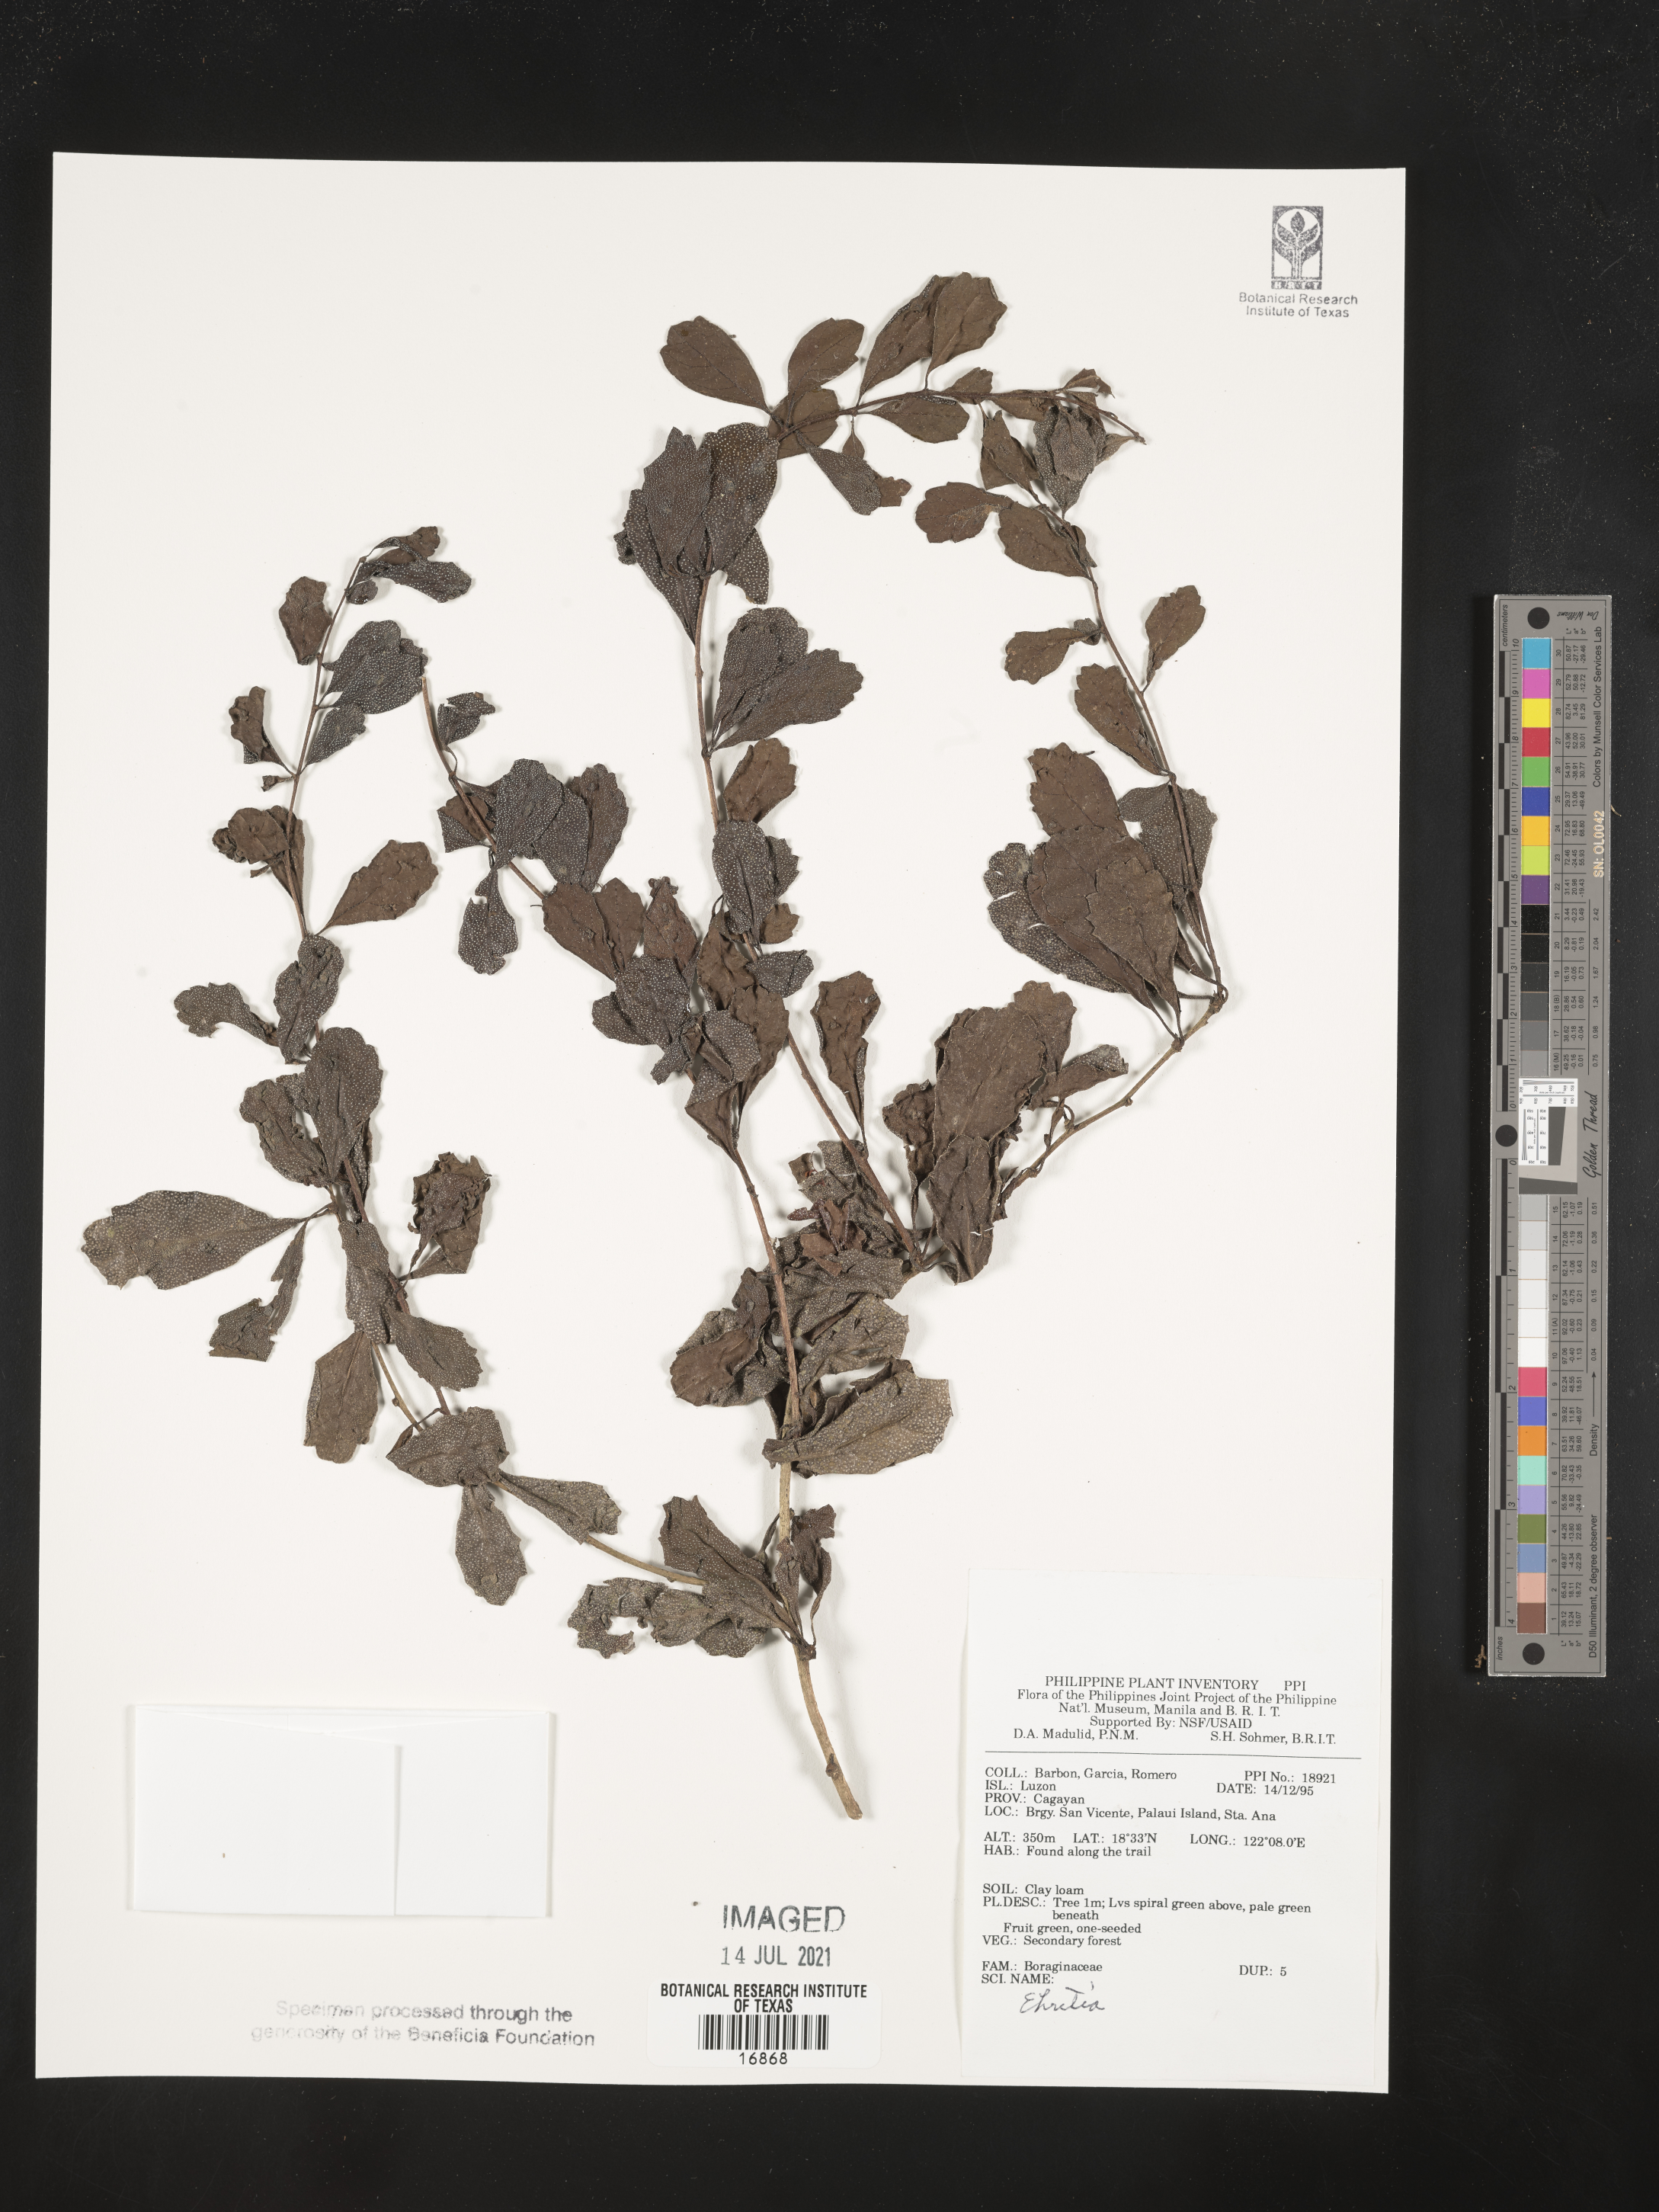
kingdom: Plantae
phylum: Tracheophyta
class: Magnoliopsida
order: Boraginales
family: Ehretiaceae
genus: Ehretia
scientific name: Ehretia
